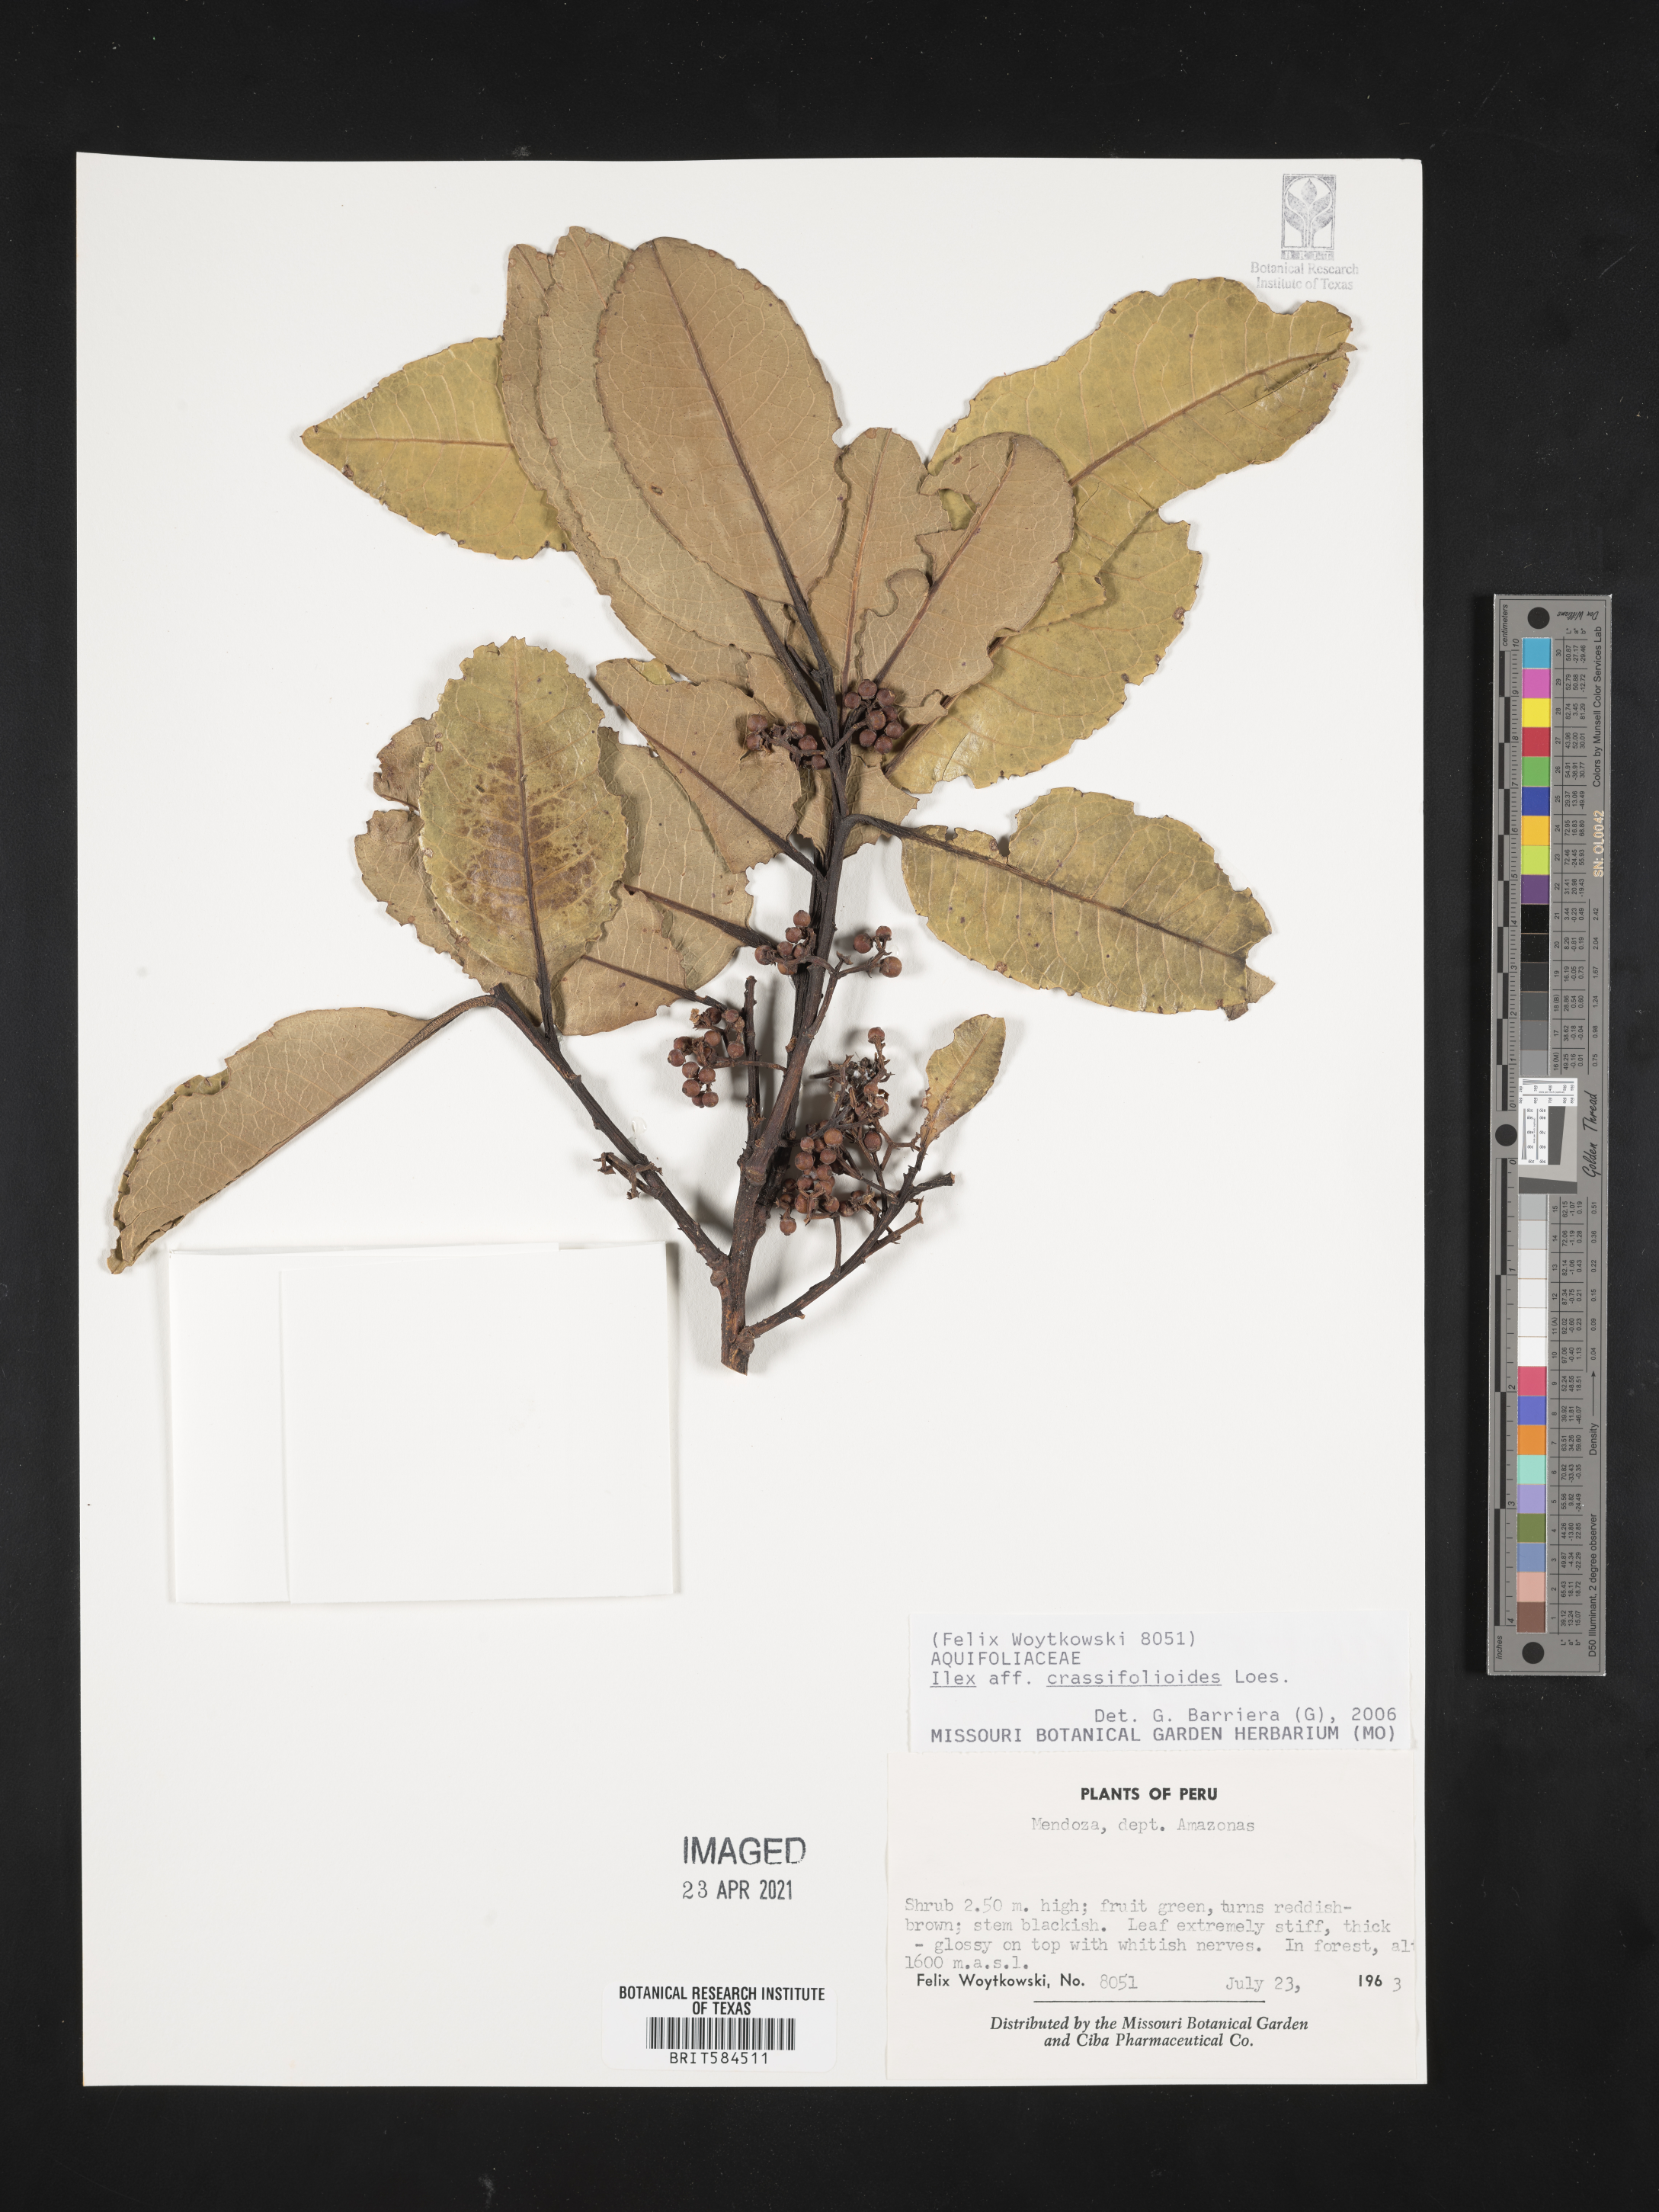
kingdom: Plantae
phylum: Tracheophyta
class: Magnoliopsida
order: Aquifoliales
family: Aquifoliaceae
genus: Ilex
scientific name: Ilex crassifolioides
